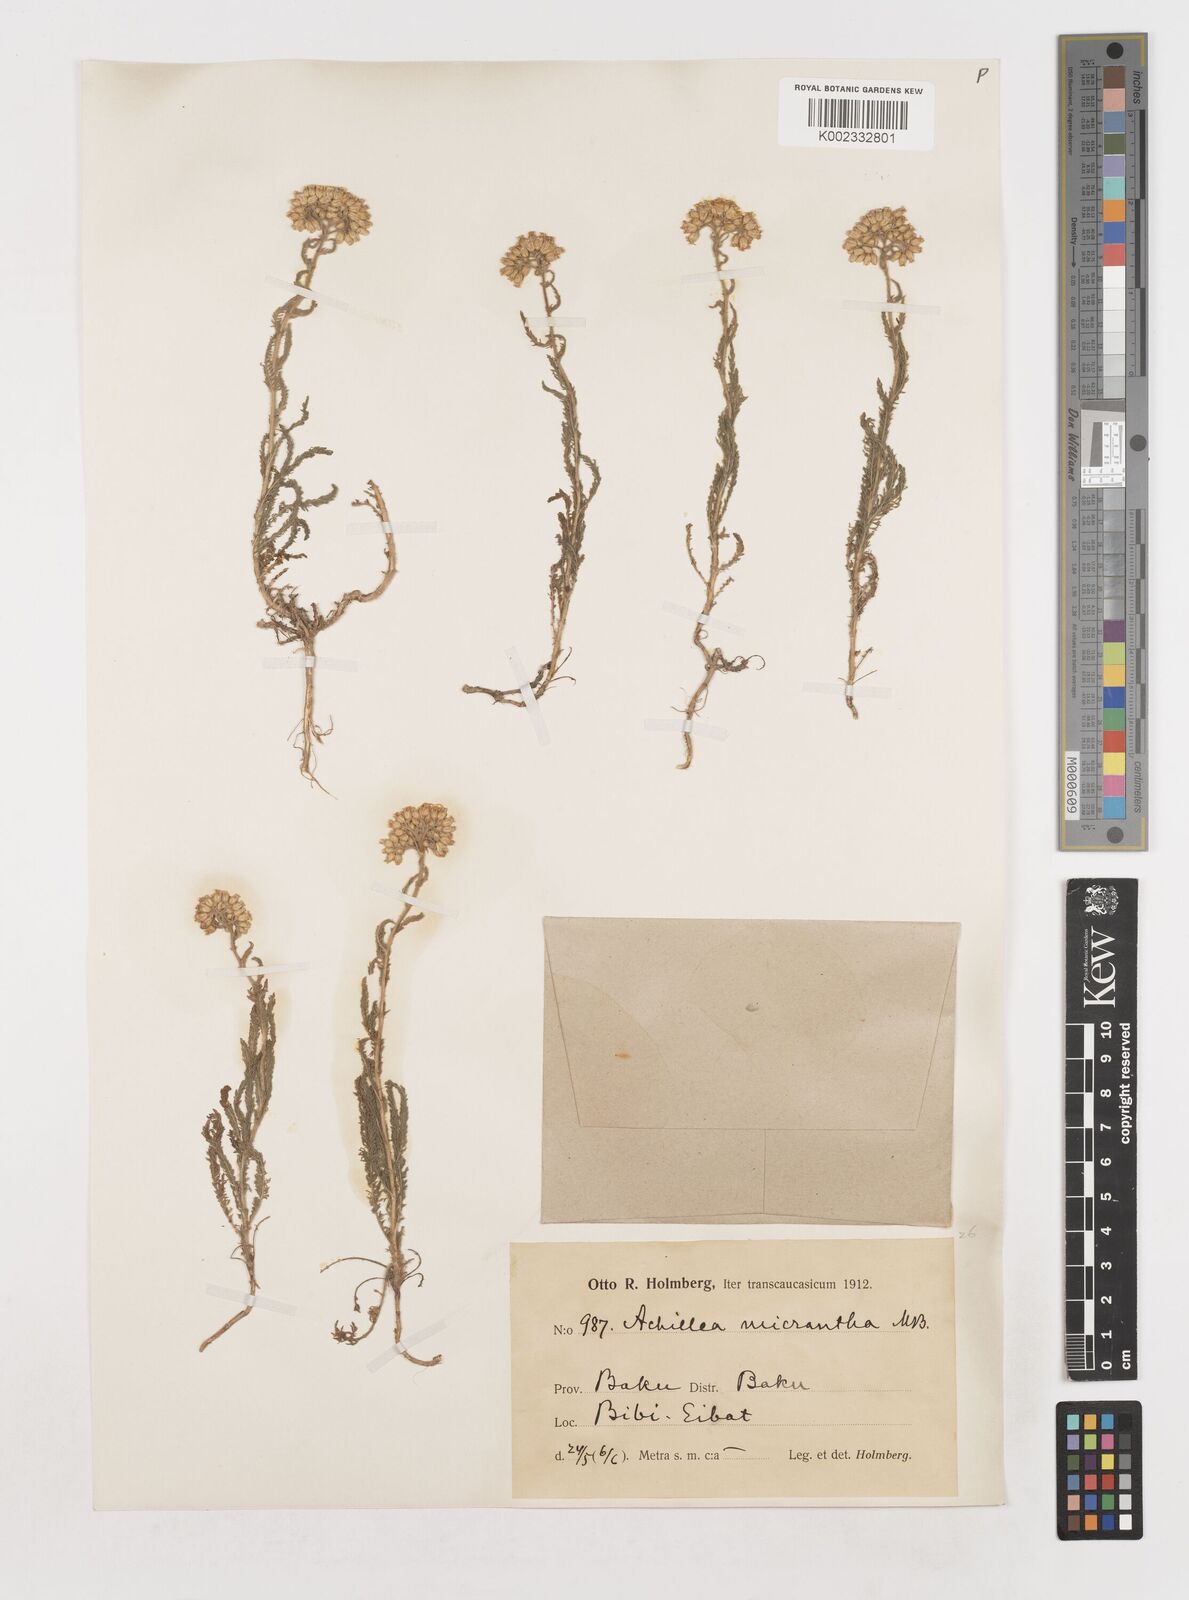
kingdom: Plantae
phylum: Tracheophyta
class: Magnoliopsida
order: Asterales
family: Asteraceae
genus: Achillea
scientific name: Achillea arabica
